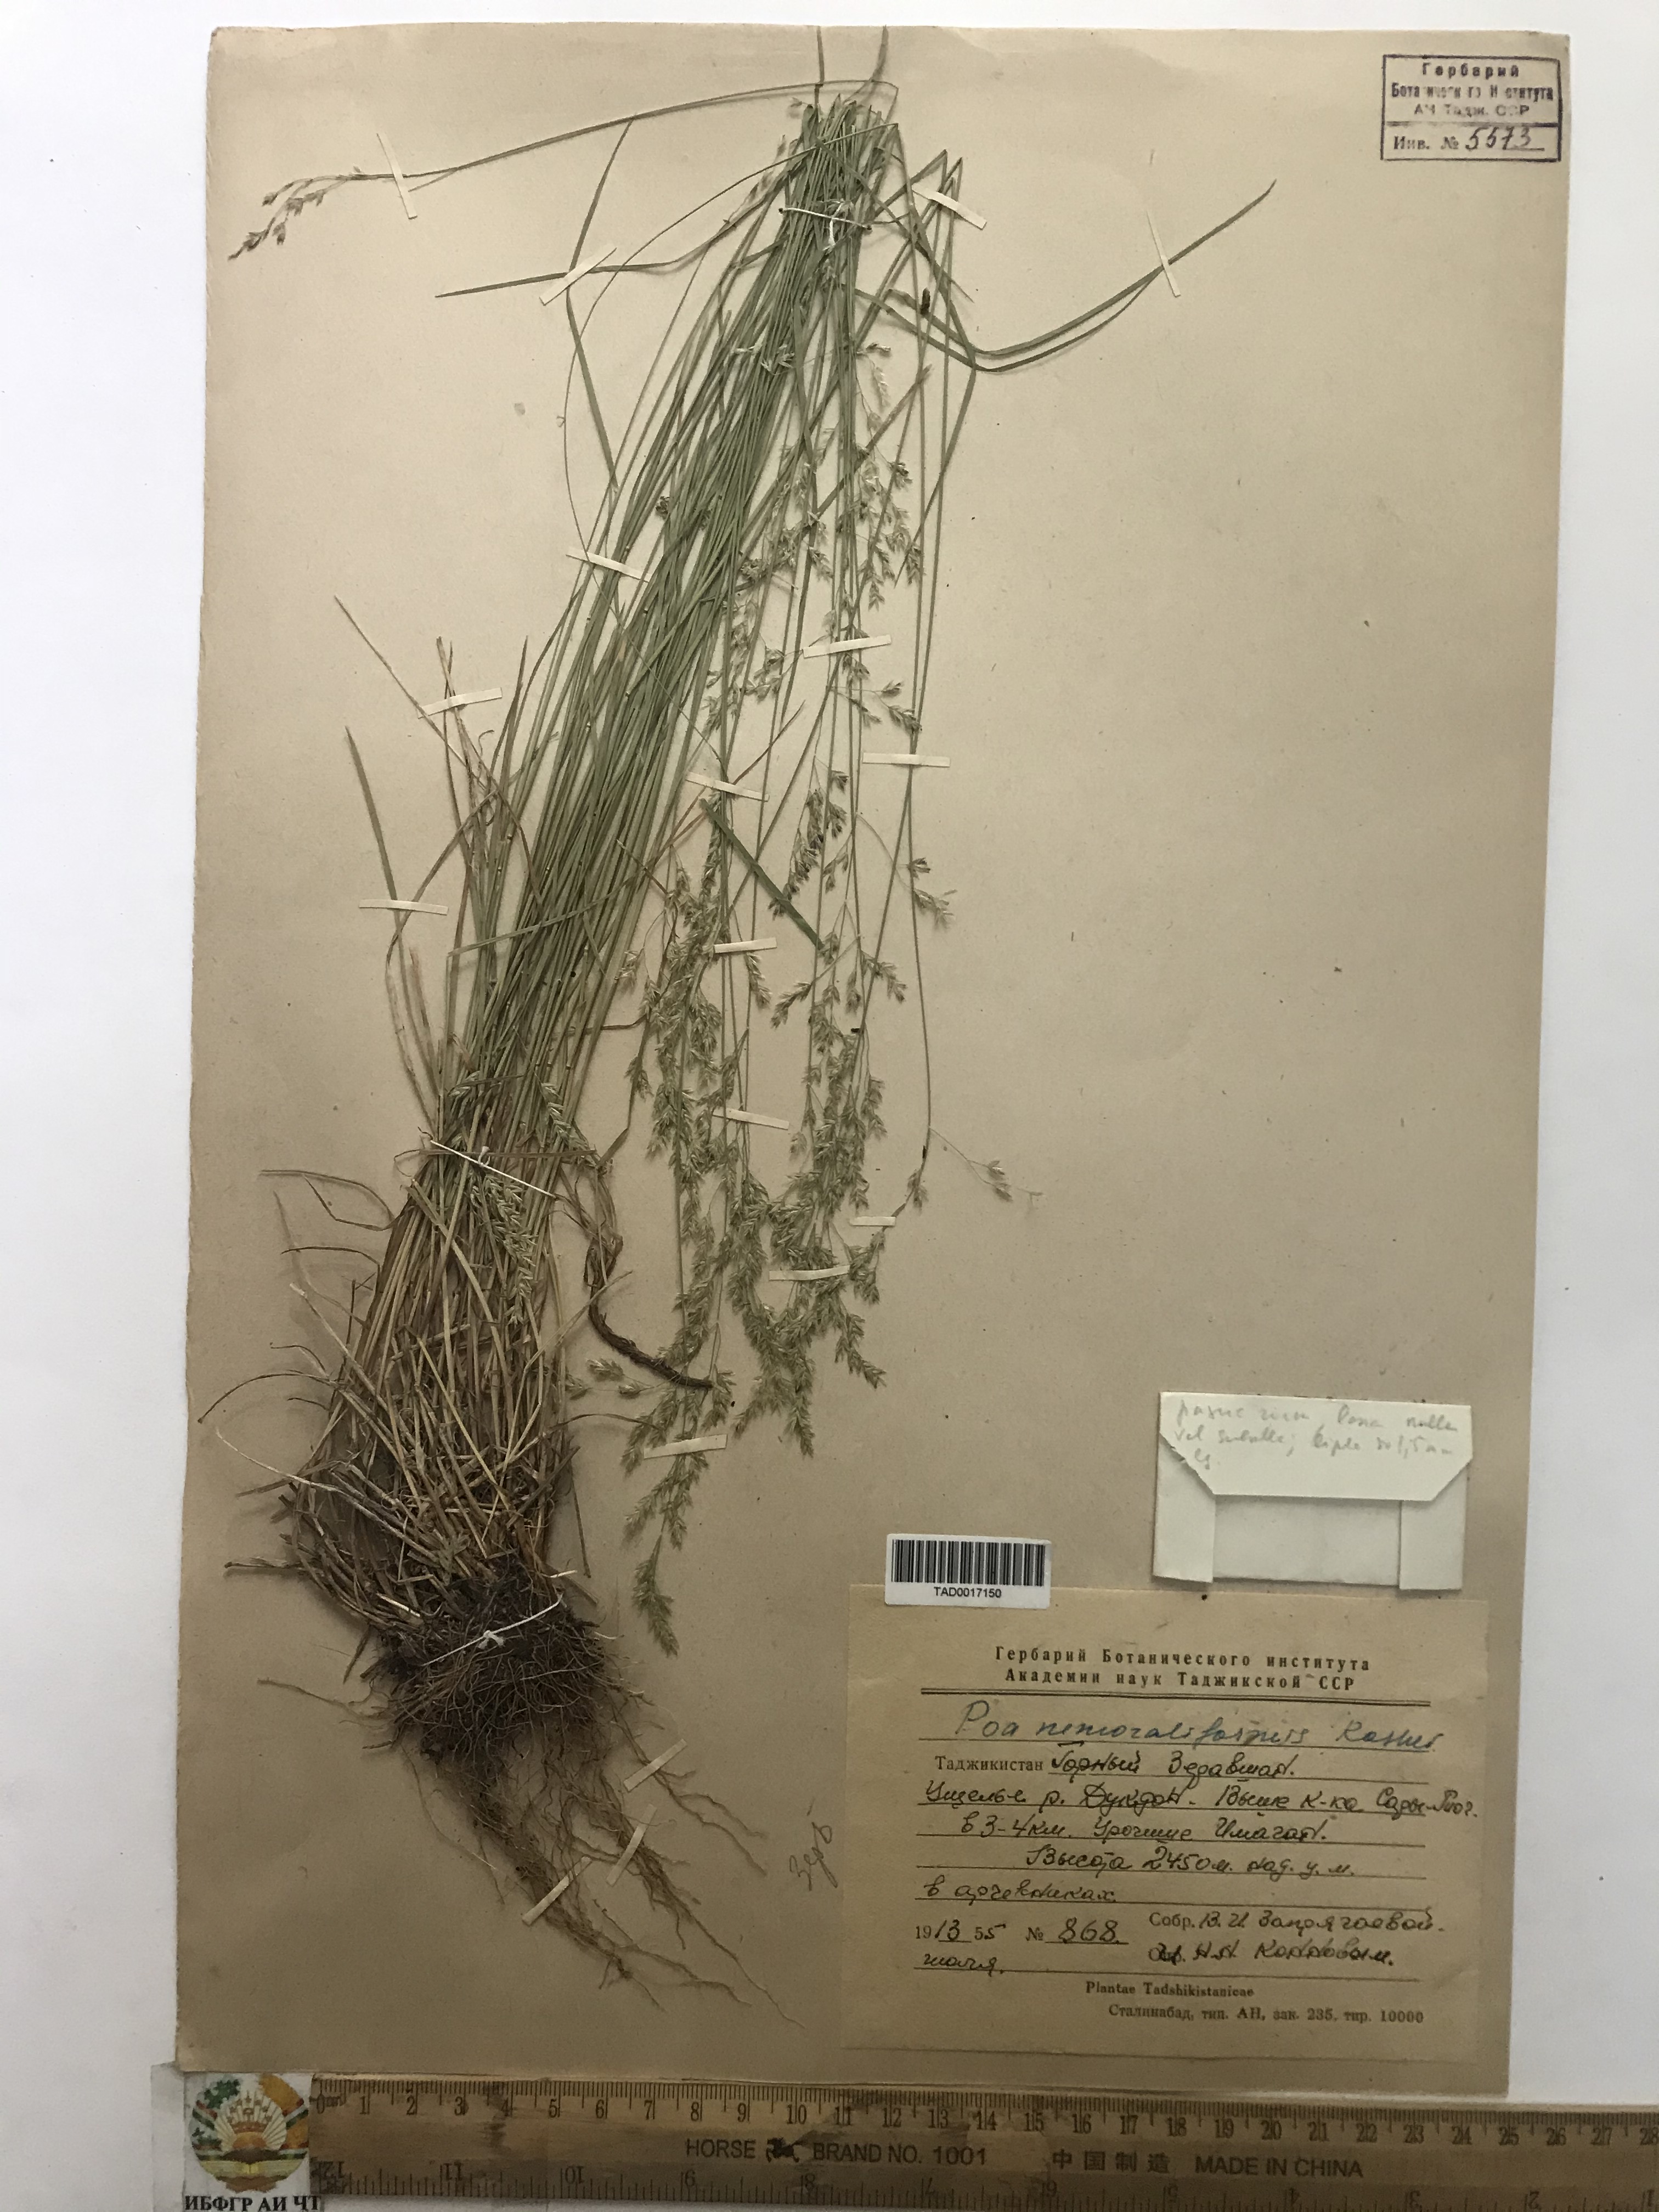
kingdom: Plantae
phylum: Tracheophyta
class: Liliopsida
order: Poales
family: Poaceae
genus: Poa
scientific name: Poa urssulensis
